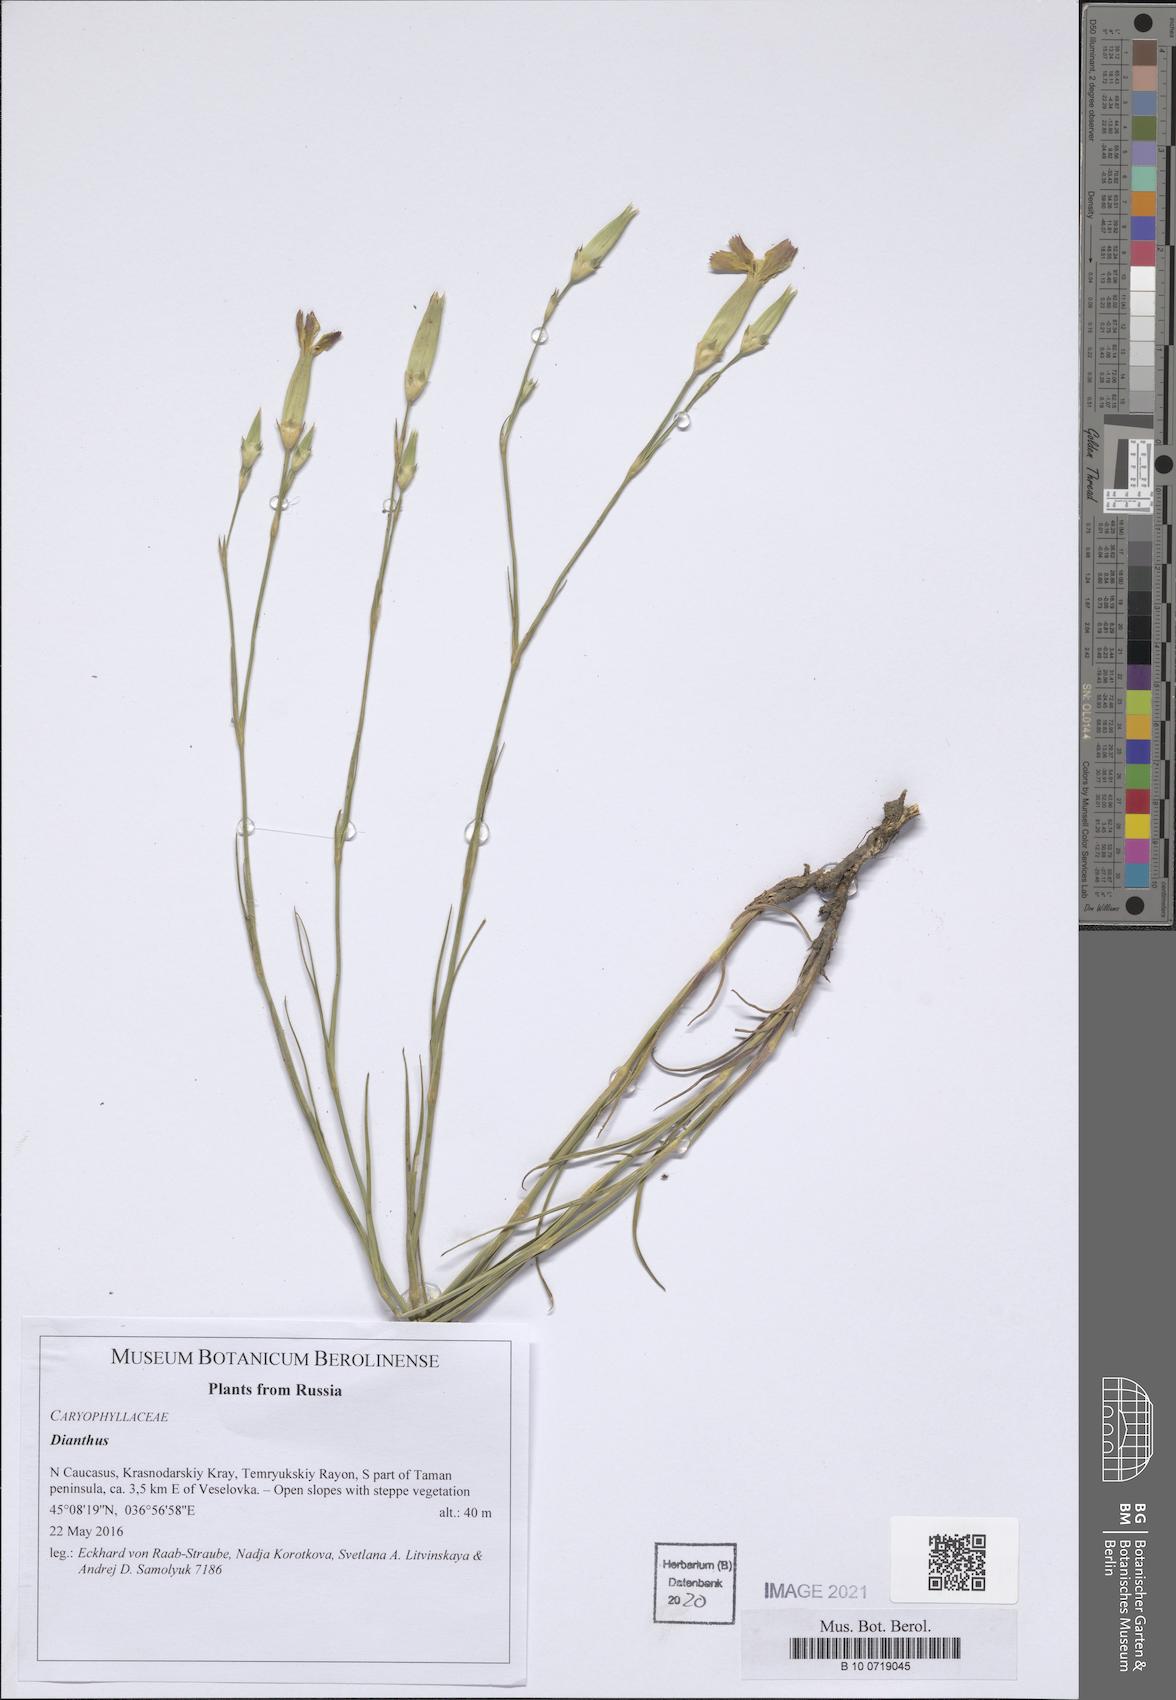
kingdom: Plantae
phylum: Tracheophyta
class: Magnoliopsida
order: Caryophyllales
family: Caryophyllaceae
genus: Dianthus
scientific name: Dianthus
